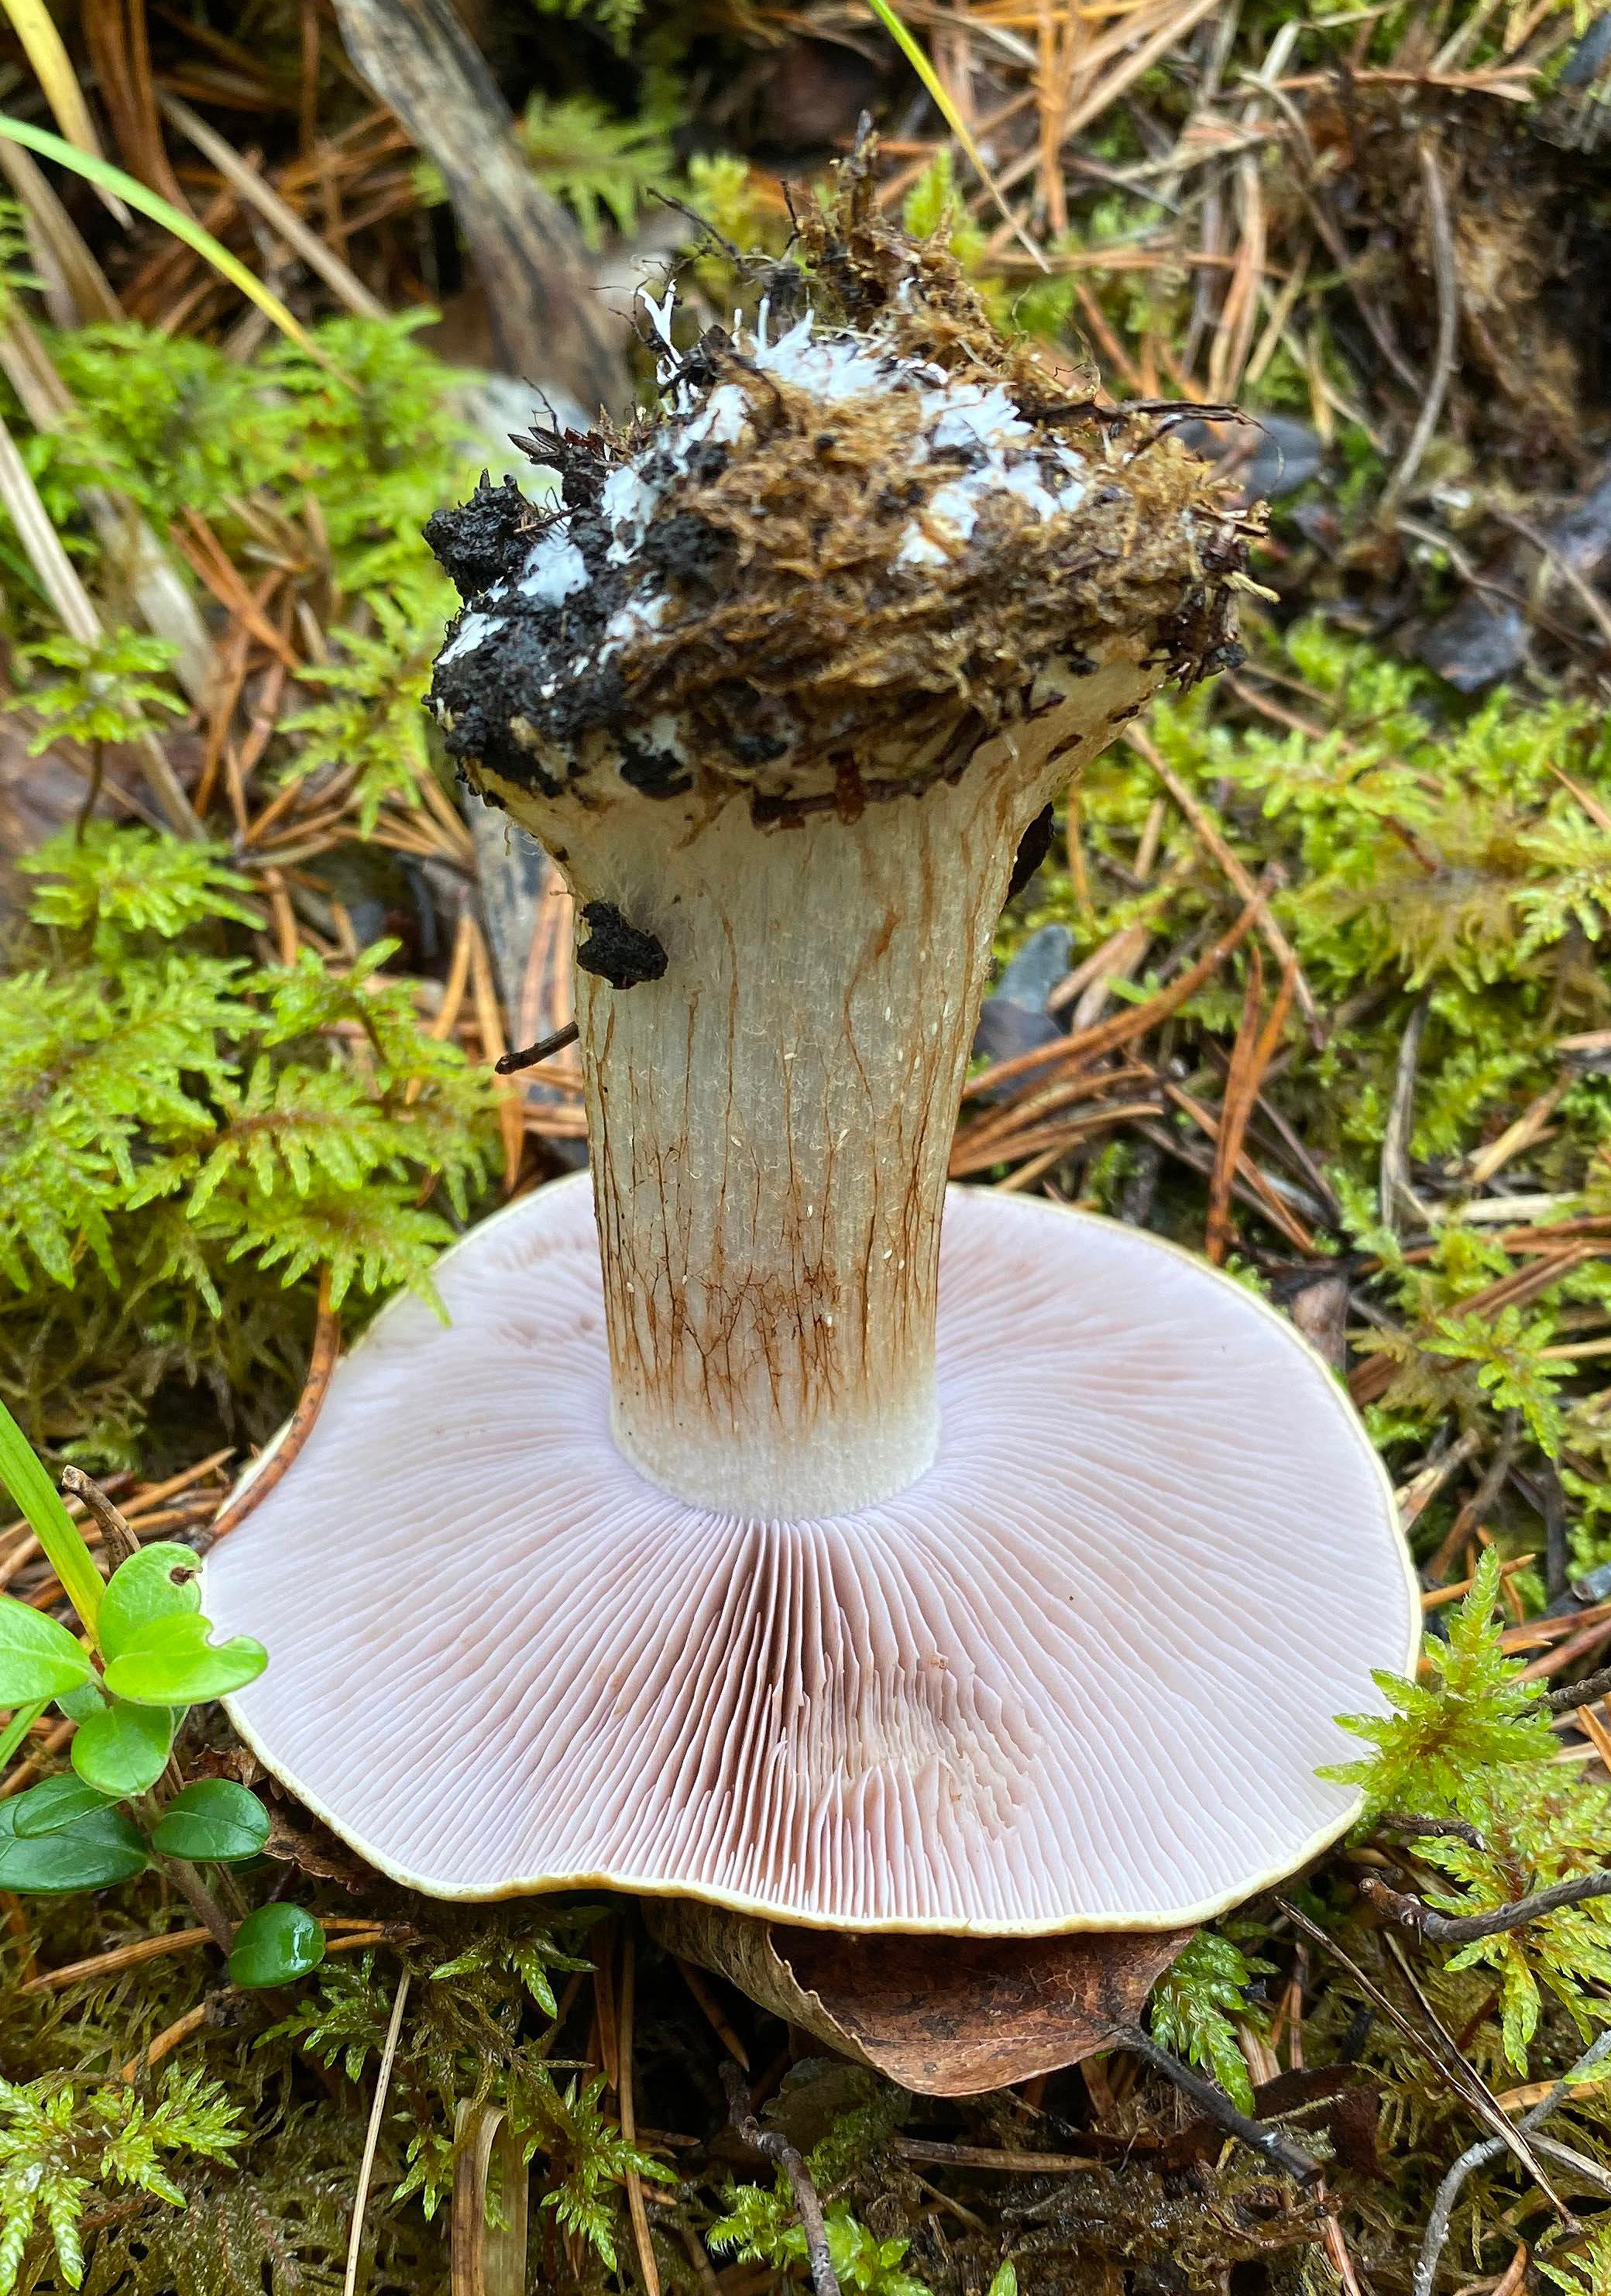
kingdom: Fungi
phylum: Basidiomycota
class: Agaricomycetes
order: Agaricales
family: Cortinariaceae
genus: Calonarius
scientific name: Calonarius metarius
